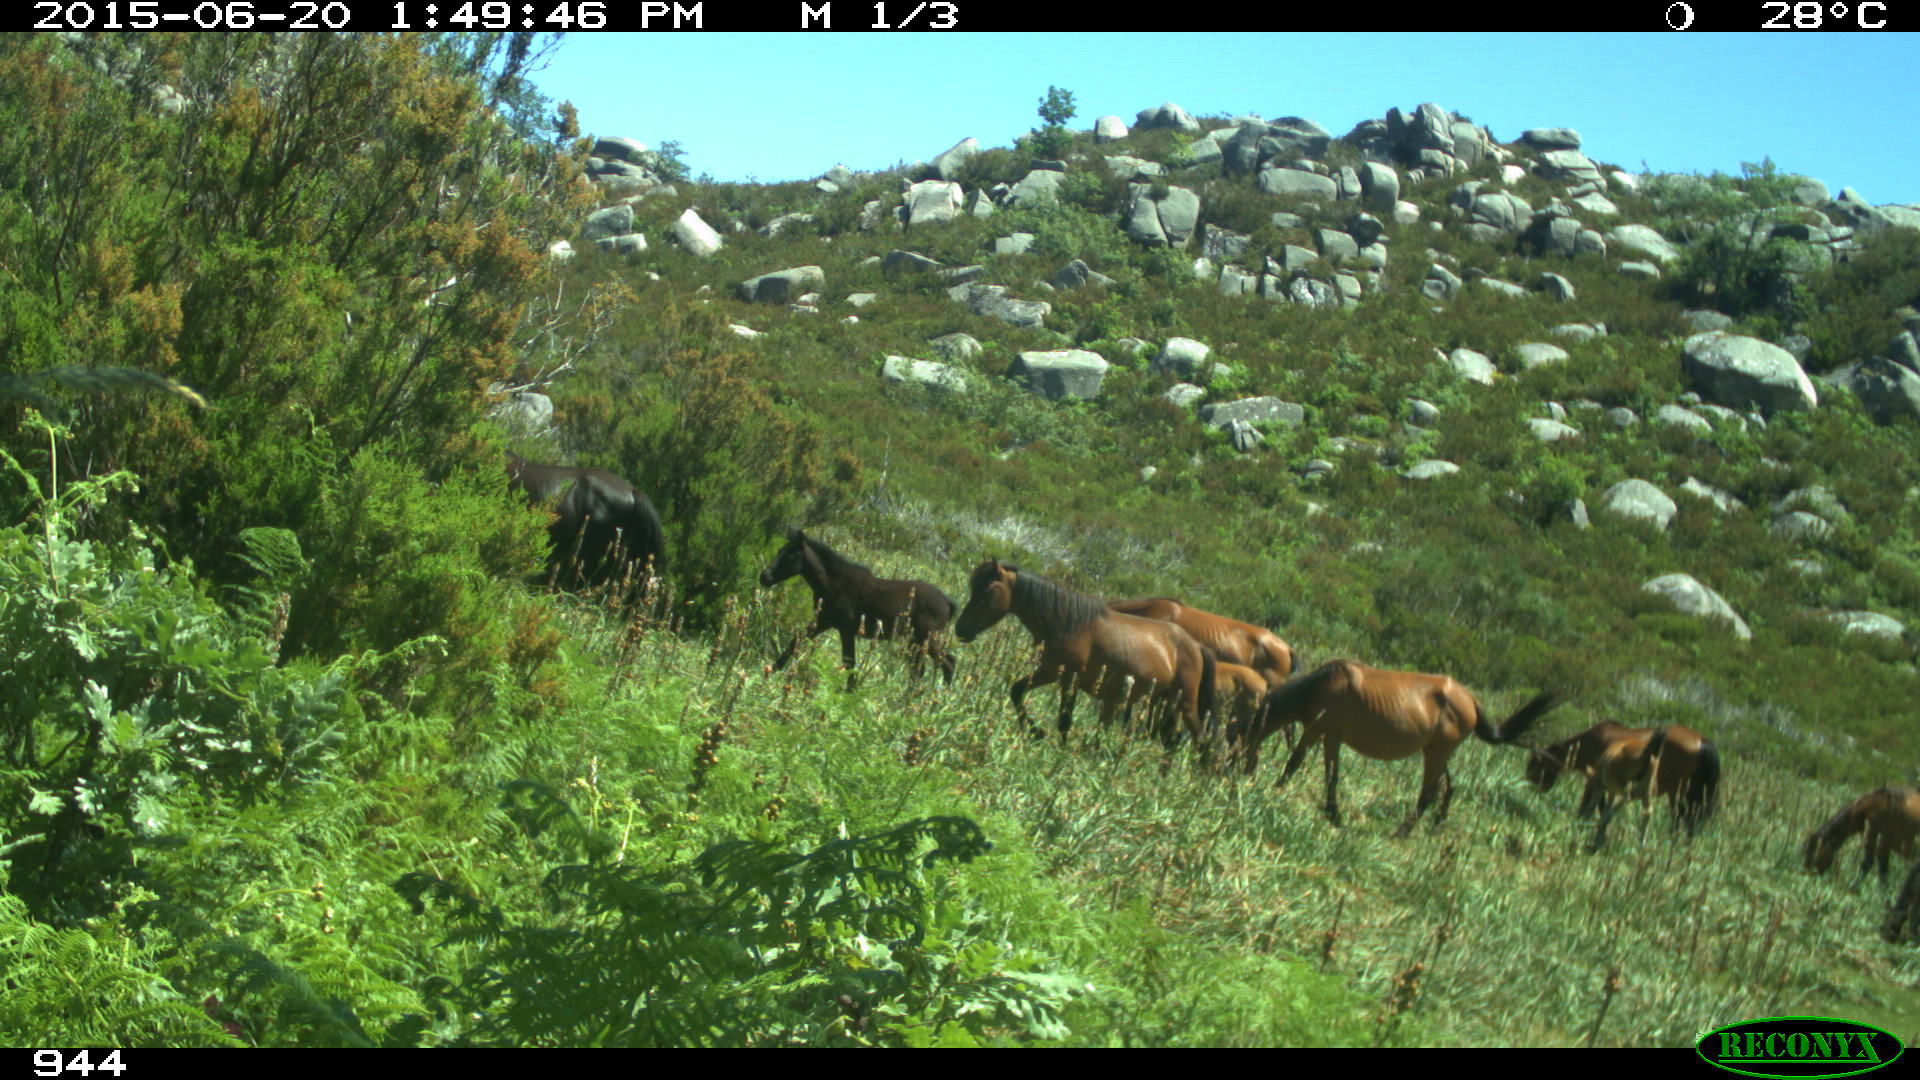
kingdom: Animalia
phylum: Chordata
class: Mammalia
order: Perissodactyla
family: Equidae
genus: Equus
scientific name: Equus caballus
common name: Horse
